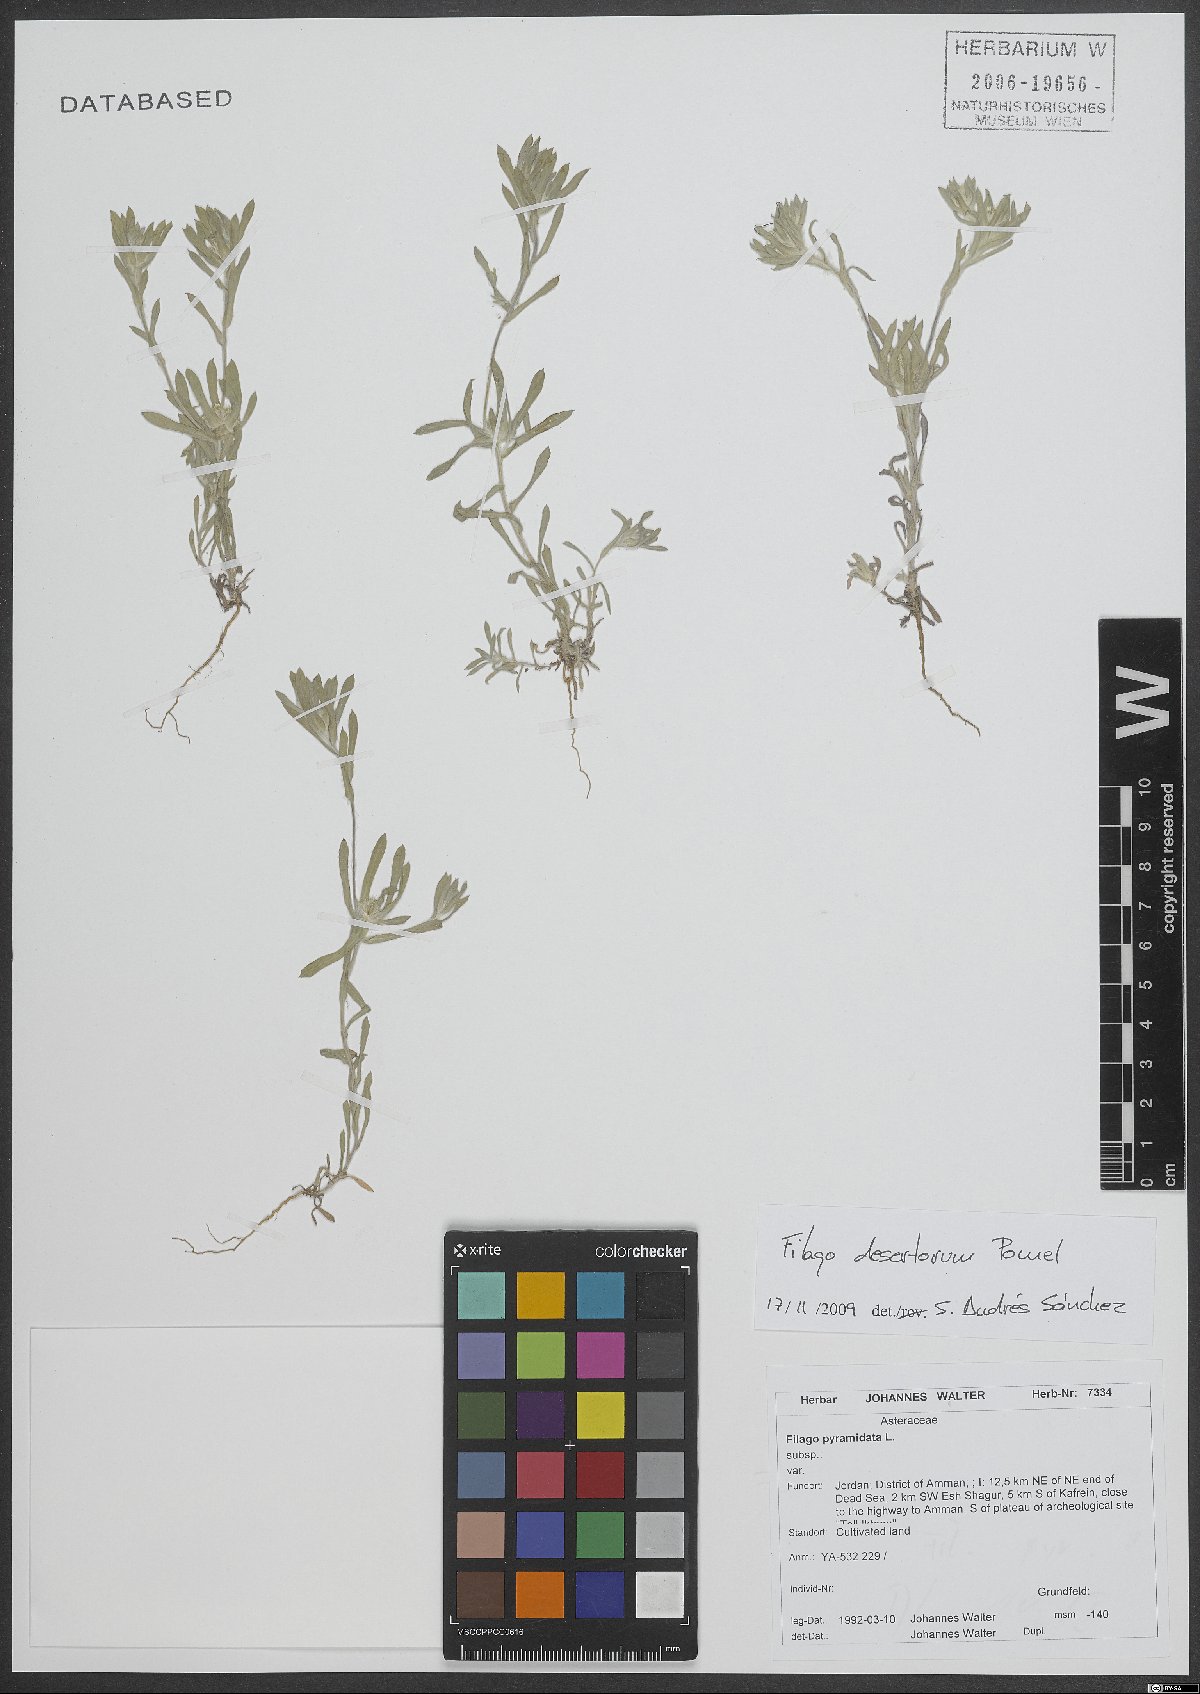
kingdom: Plantae
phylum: Tracheophyta
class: Magnoliopsida
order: Asterales
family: Asteraceae
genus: Filago
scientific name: Filago desertorum
